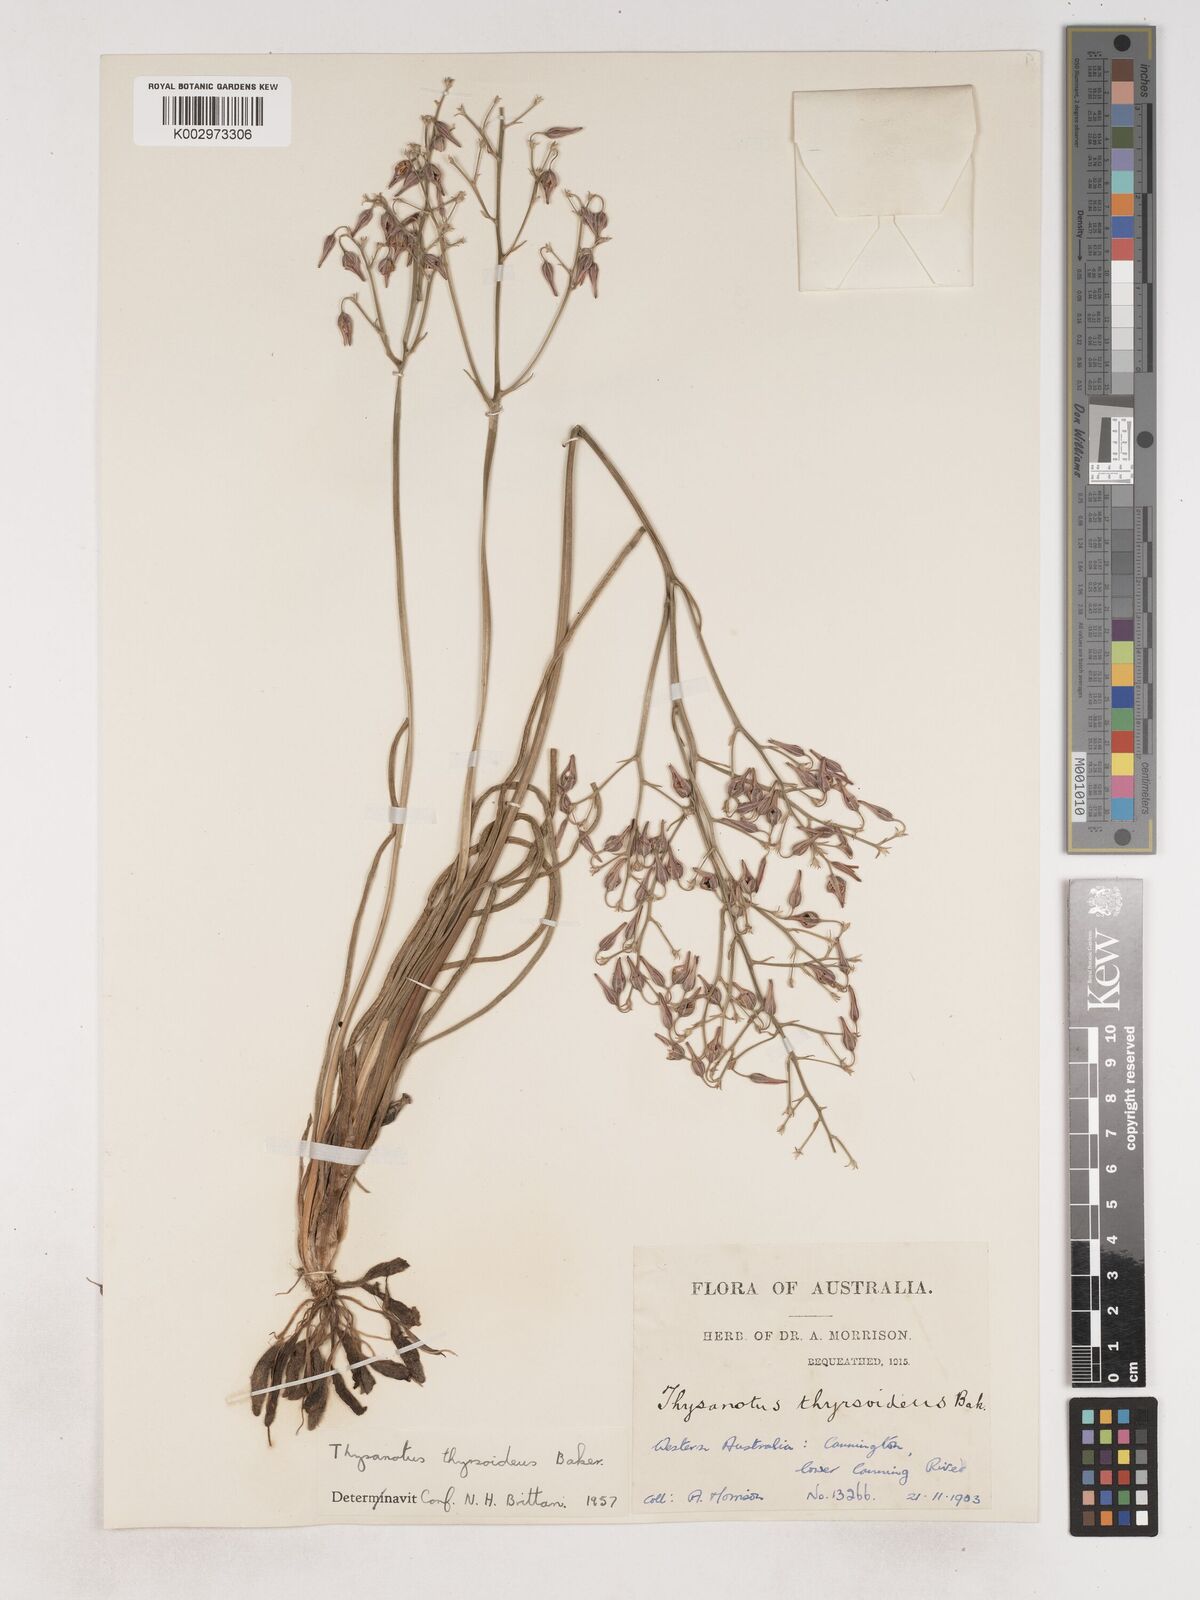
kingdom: Plantae
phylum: Tracheophyta
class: Liliopsida
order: Asparagales
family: Asparagaceae
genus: Thysanotus
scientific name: Thysanotus thyrsoideus
